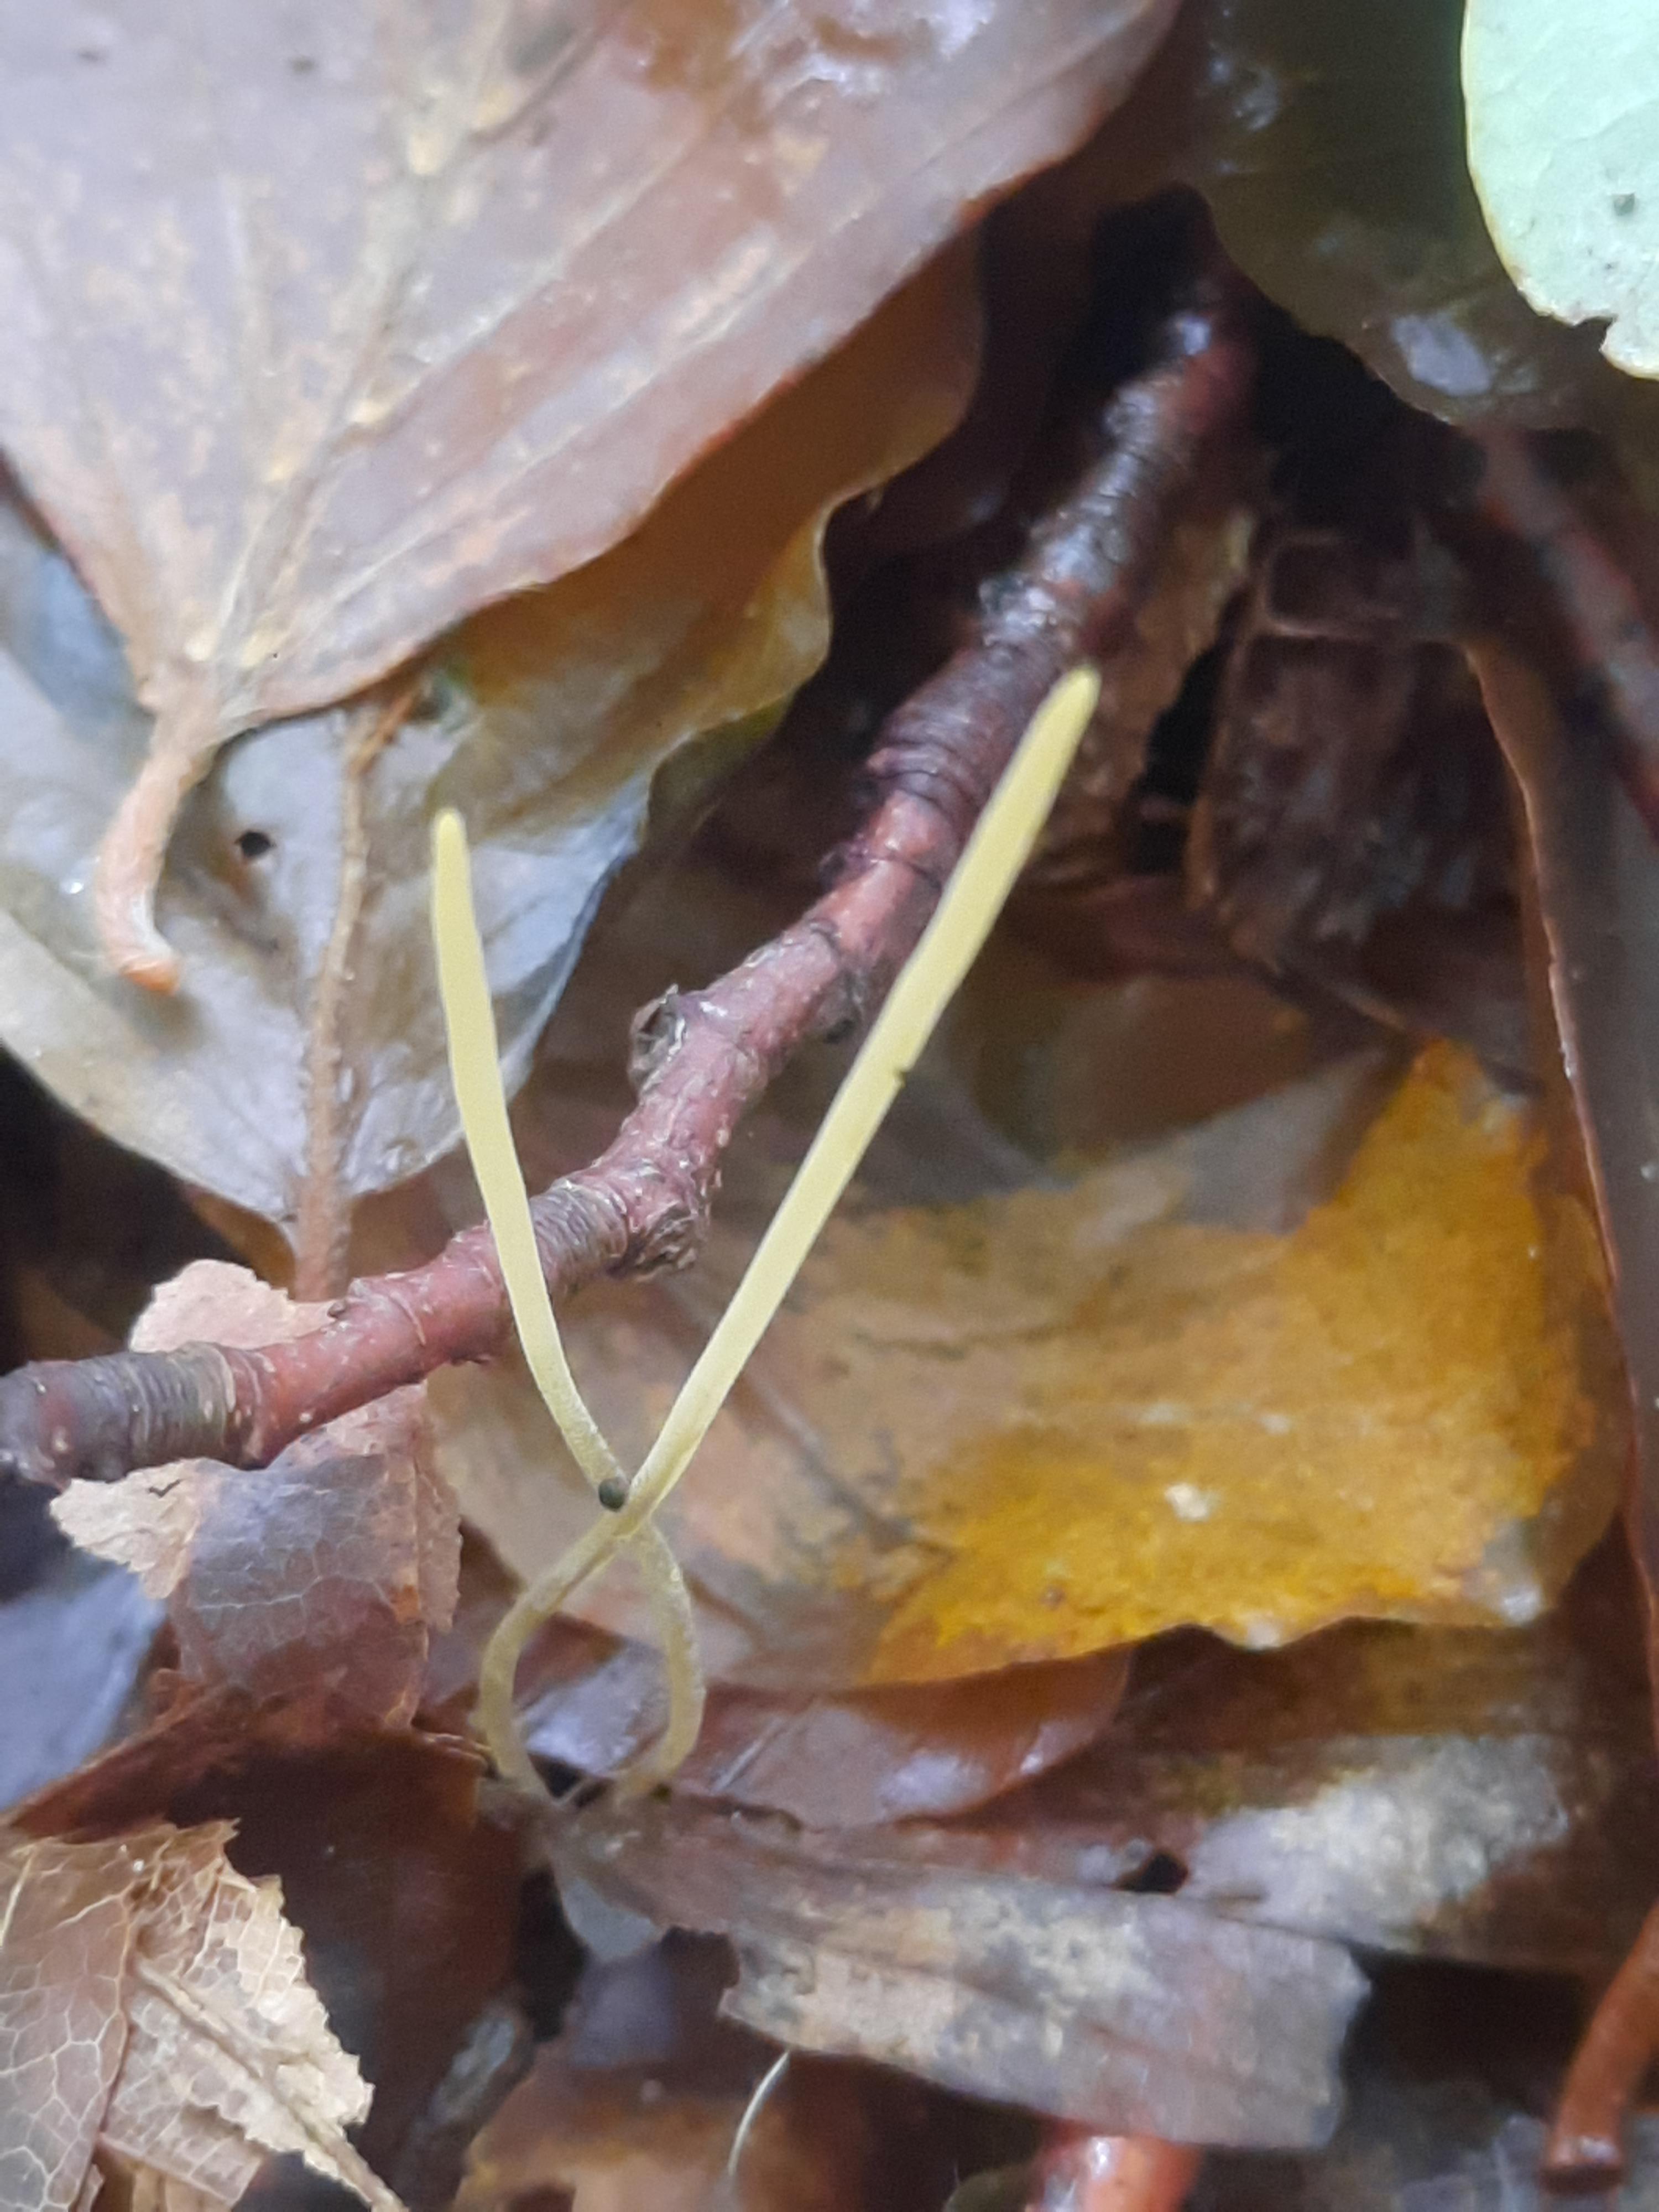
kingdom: Fungi
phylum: Basidiomycota
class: Agaricomycetes
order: Agaricales
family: Typhulaceae
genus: Typhula
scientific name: Typhula juncea
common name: trådagtig rørkølle
